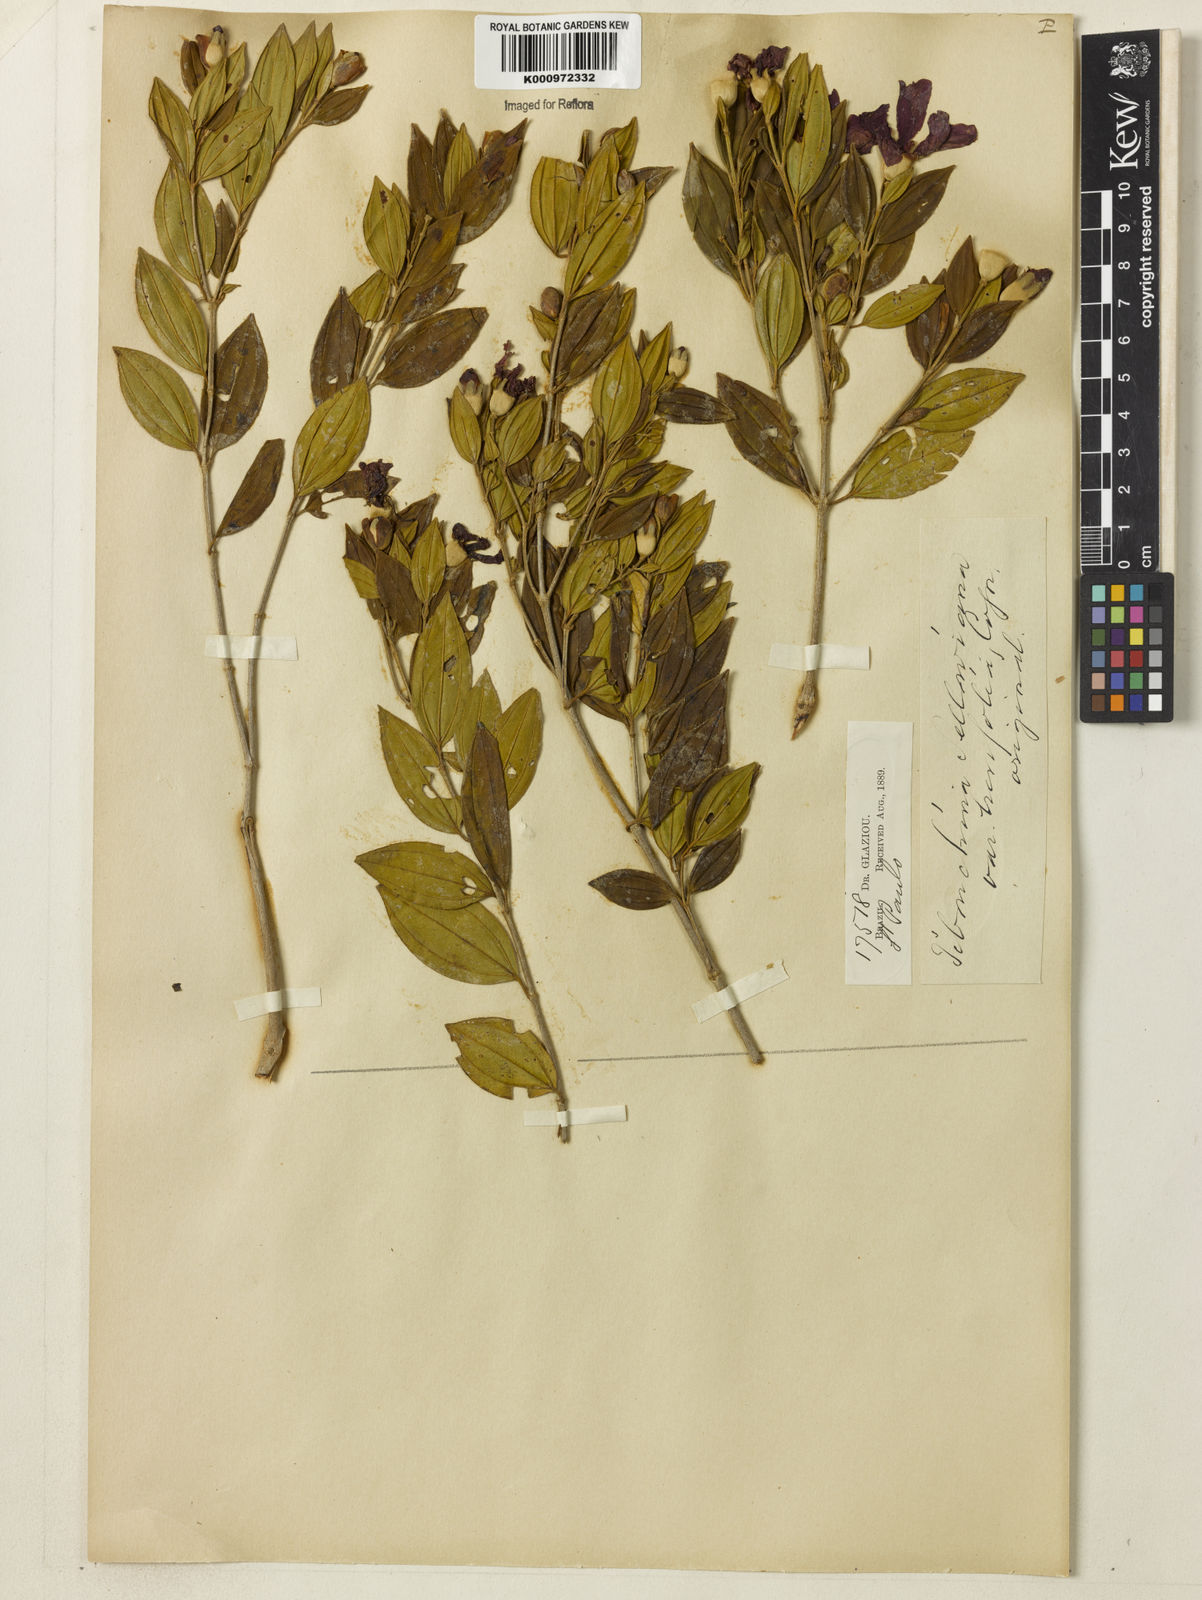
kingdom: Plantae
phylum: Tracheophyta
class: Magnoliopsida
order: Myrtales
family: Melastomataceae
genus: Pleroma
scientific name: Pleroma sellowianum
